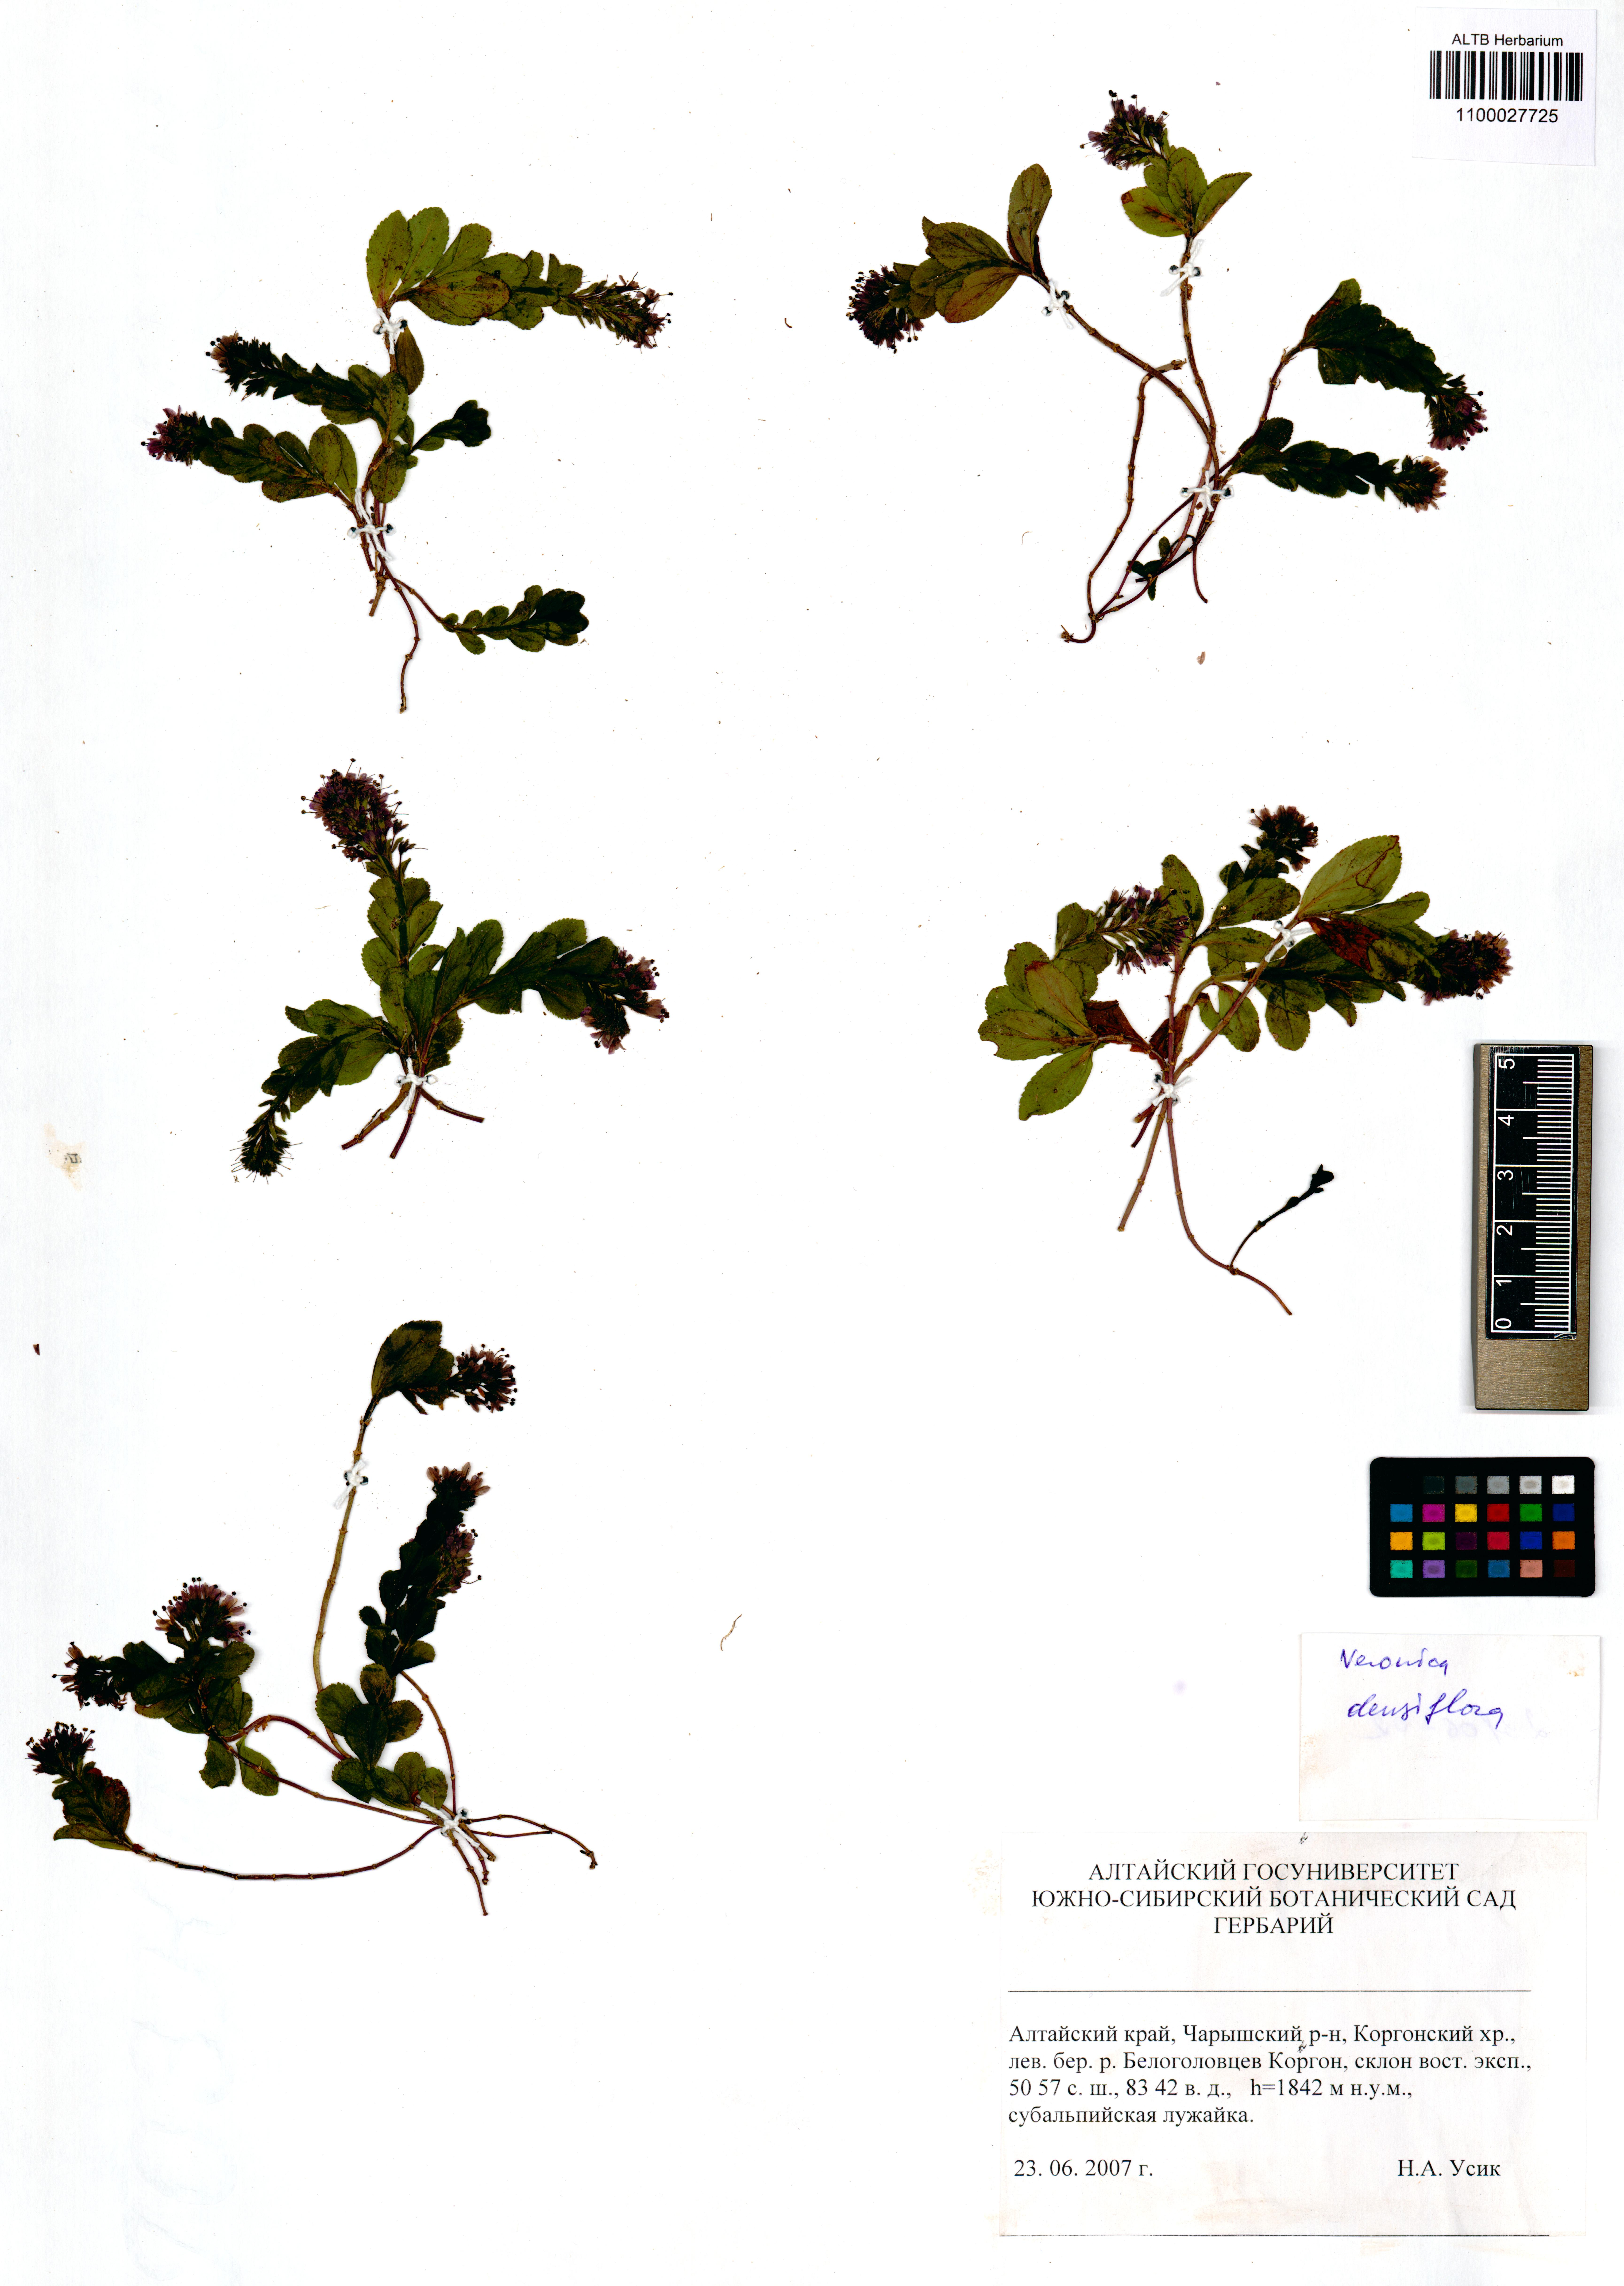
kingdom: Plantae
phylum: Tracheophyta
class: Magnoliopsida
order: Lamiales
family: Plantaginaceae
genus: Veronica
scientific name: Veronica densiflora
